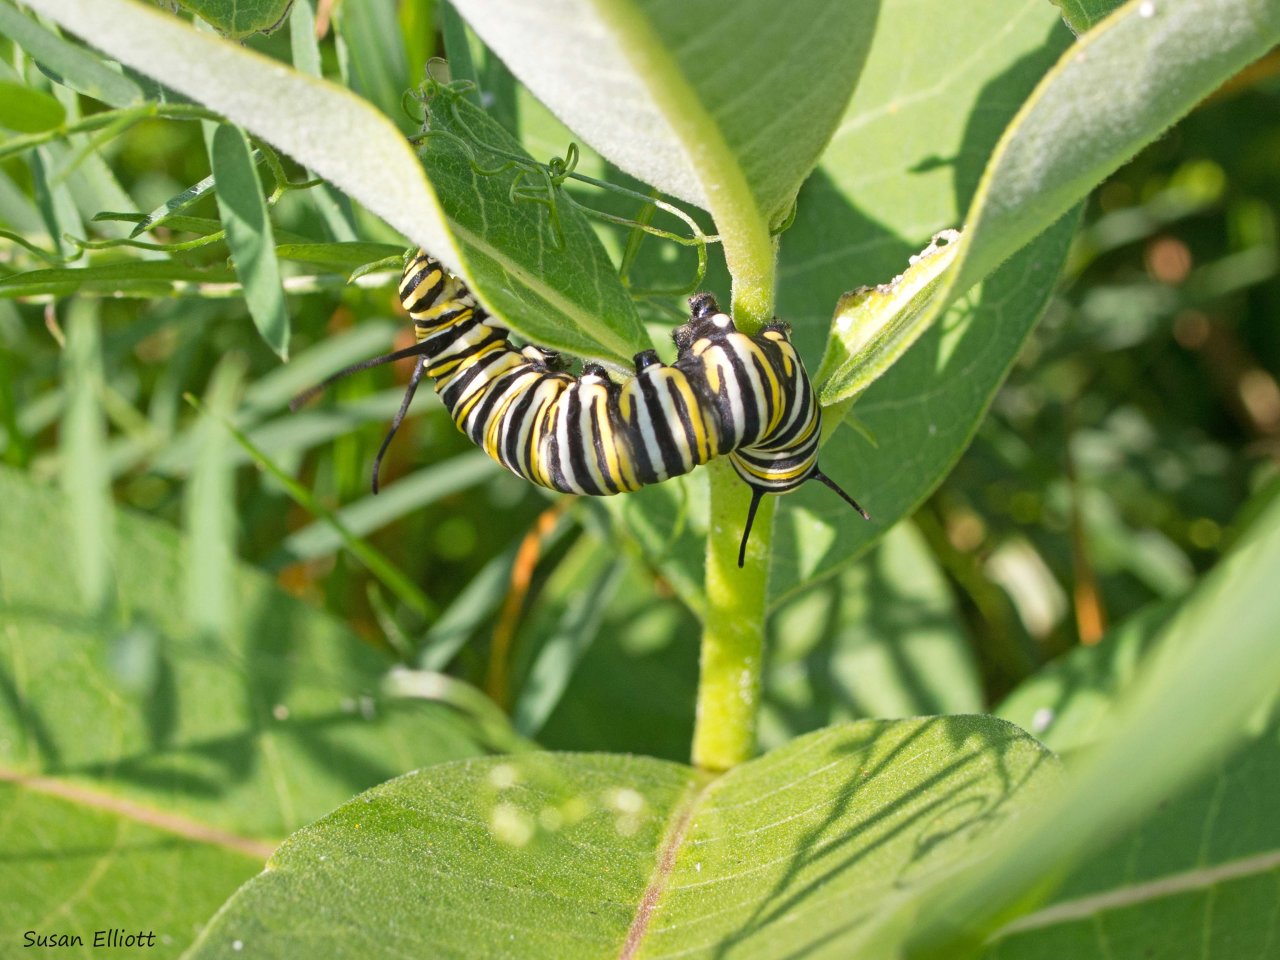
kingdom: Animalia
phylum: Arthropoda
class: Insecta
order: Lepidoptera
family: Nymphalidae
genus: Danaus
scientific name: Danaus plexippus
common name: Monarch
